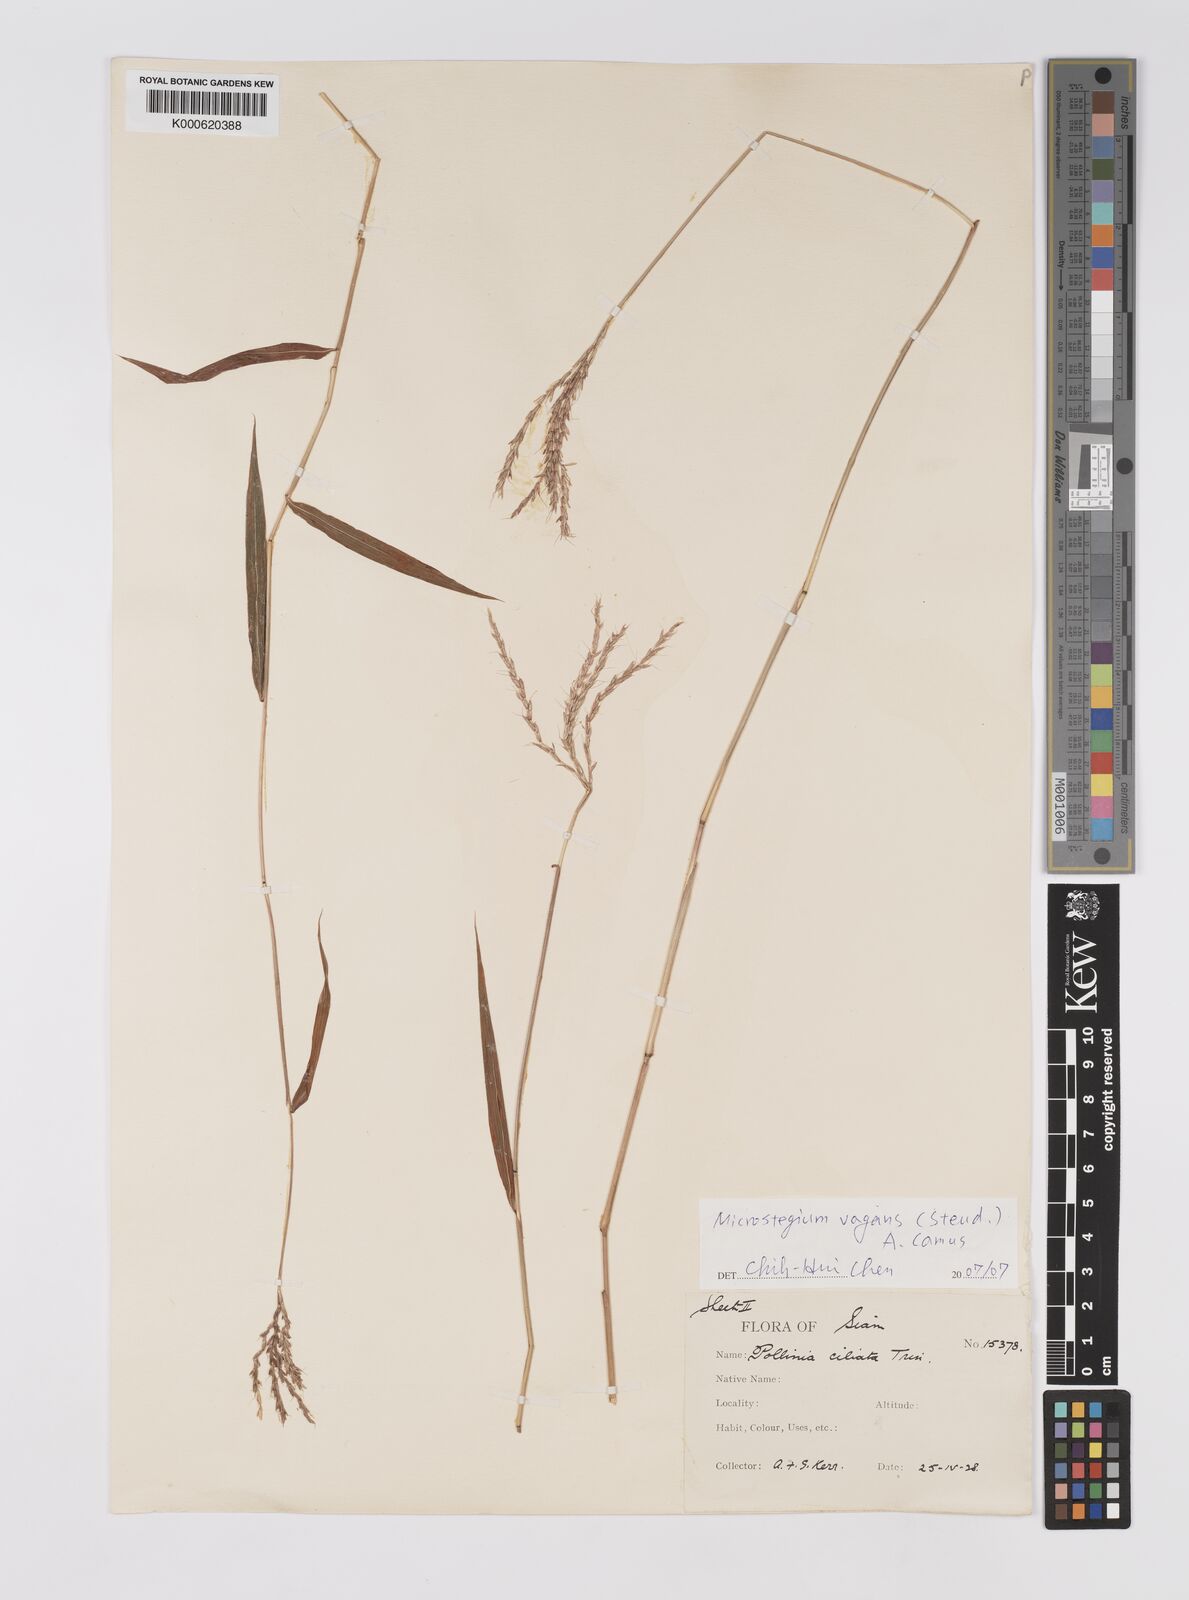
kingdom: Plantae
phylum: Tracheophyta
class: Liliopsida
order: Poales
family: Poaceae
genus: Microstegium
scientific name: Microstegium fasciculatum
